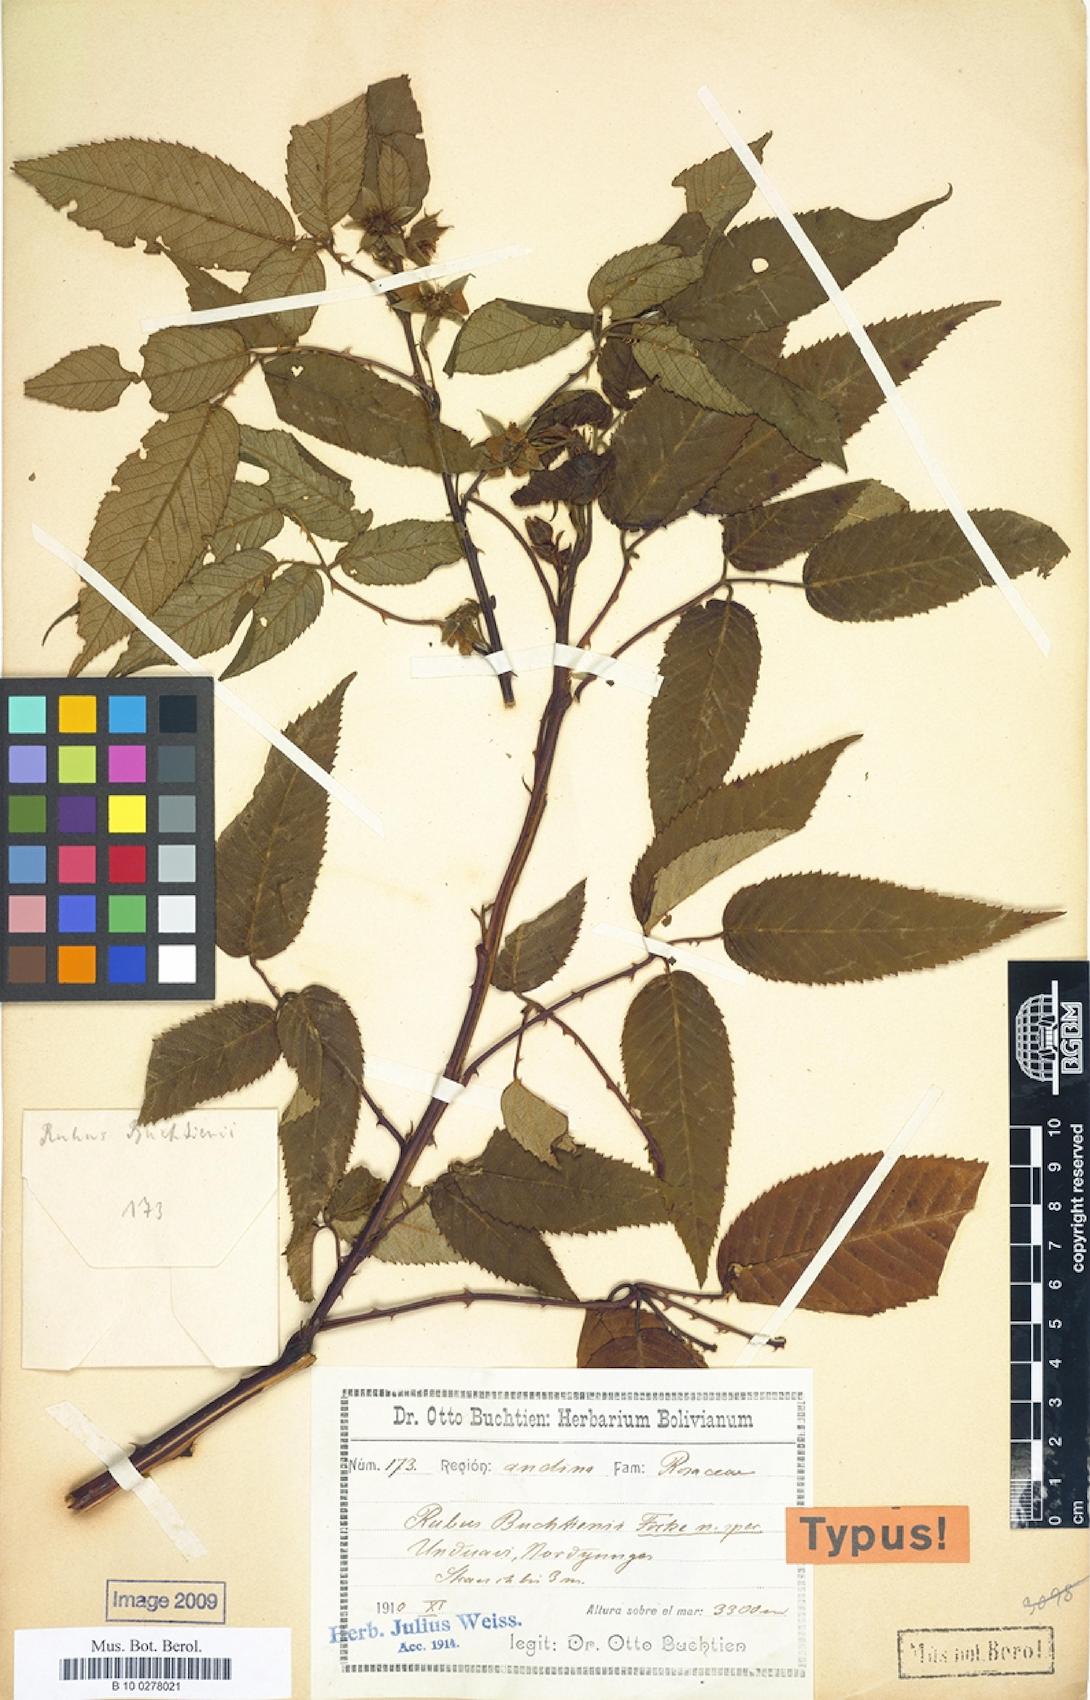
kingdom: Plantae
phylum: Tracheophyta
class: Magnoliopsida
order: Rosales
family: Rosaceae
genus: Rubus
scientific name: Rubus buchtienii
